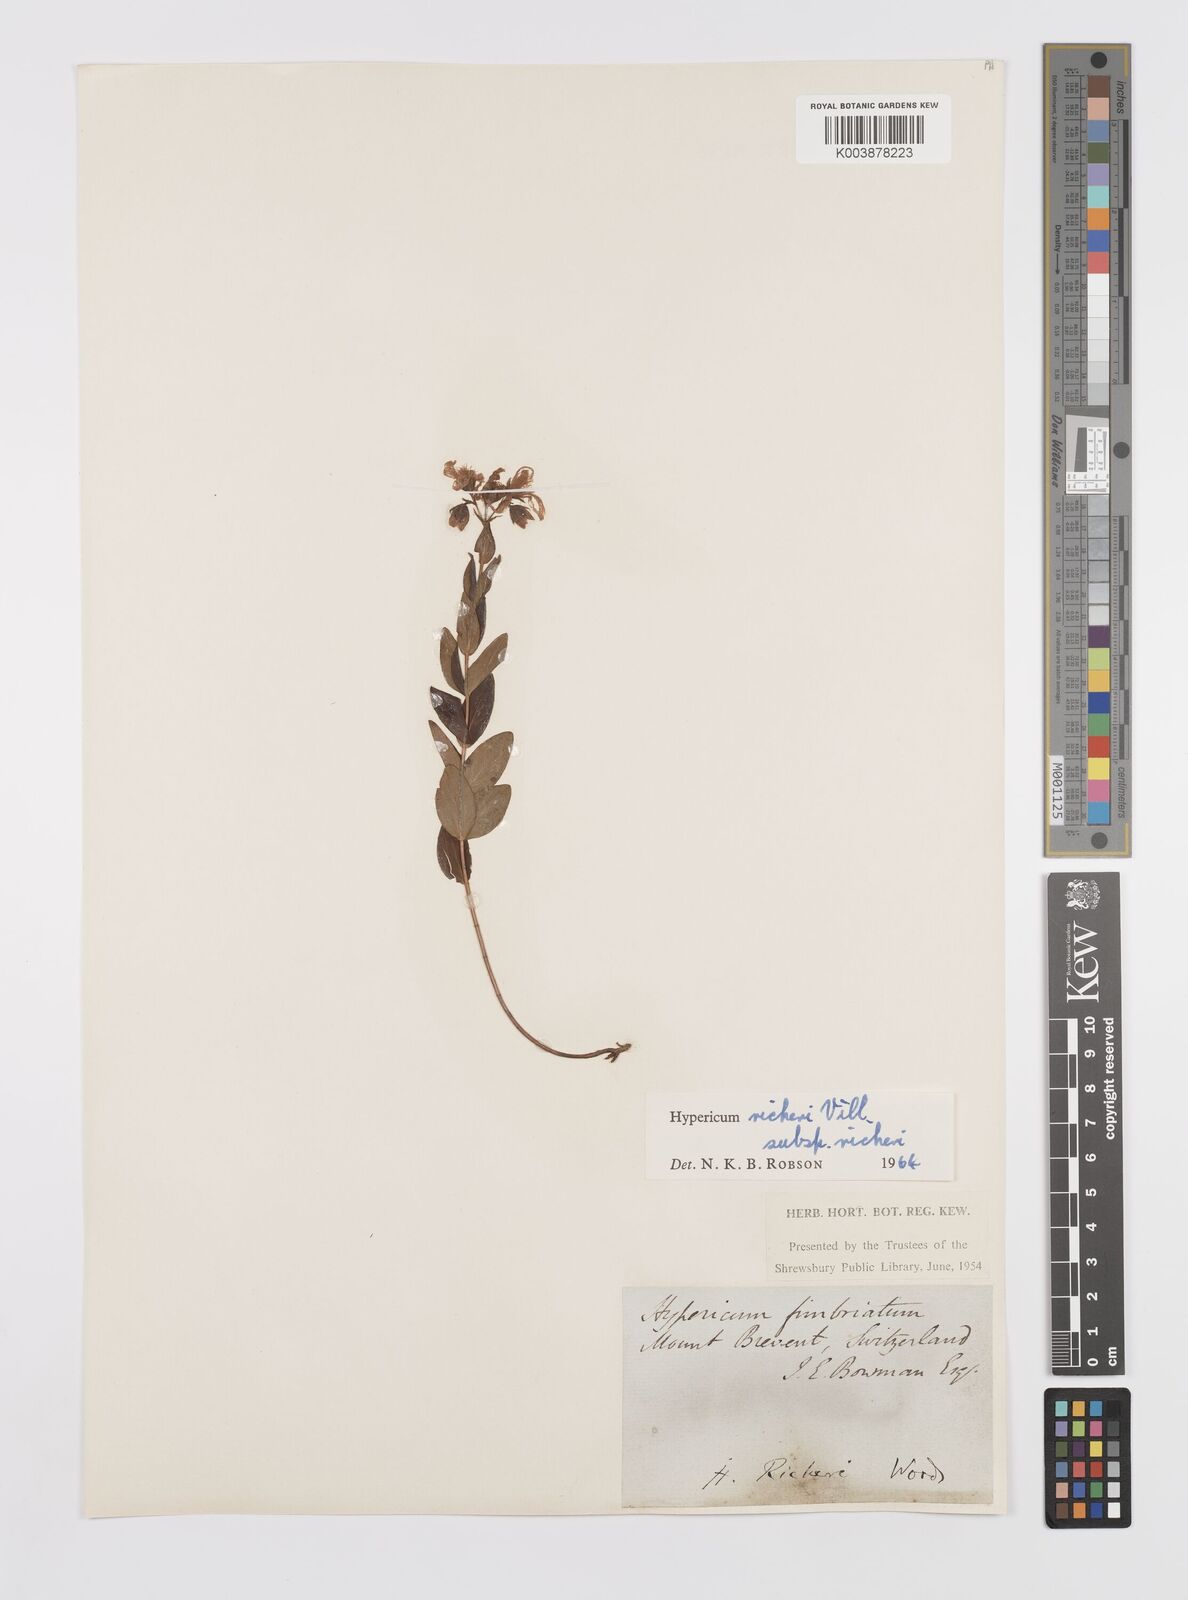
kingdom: Plantae
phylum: Tracheophyta
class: Magnoliopsida
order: Malpighiales
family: Hypericaceae
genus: Hypericum
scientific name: Hypericum richeri
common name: Alpine st john's-wort
